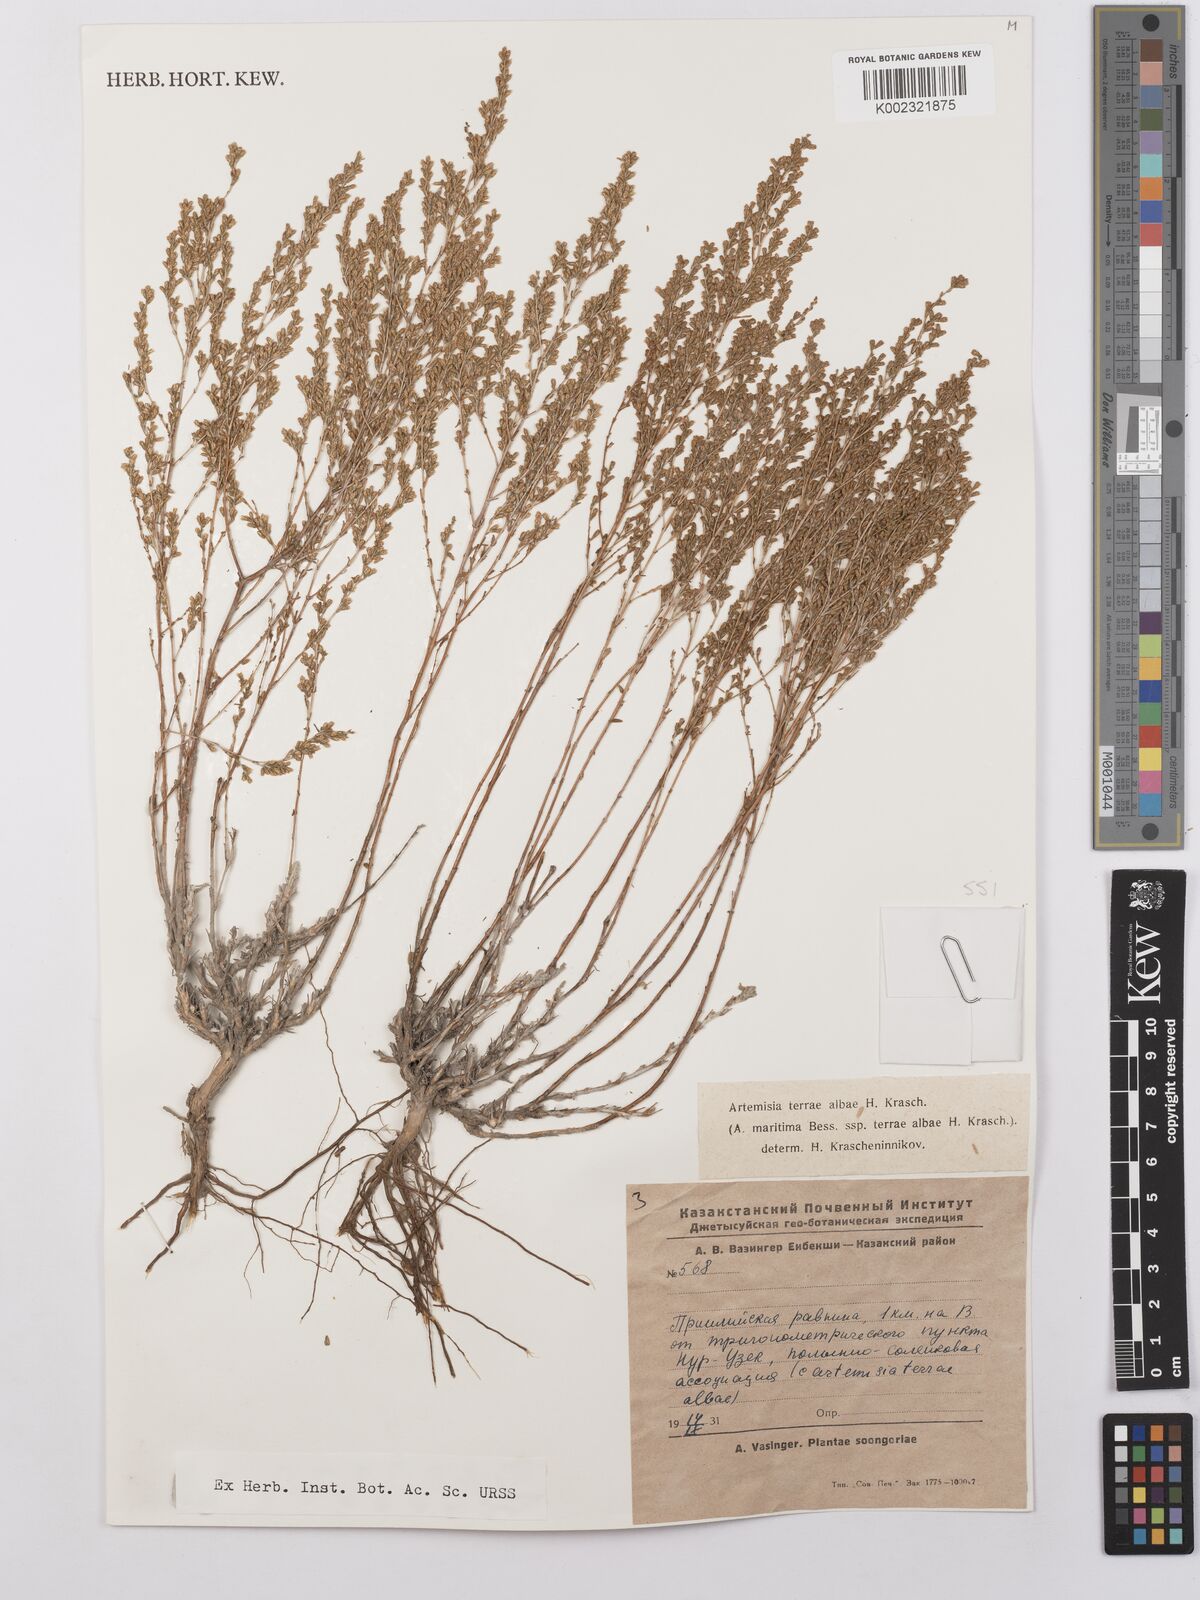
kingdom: Plantae
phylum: Tracheophyta
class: Magnoliopsida
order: Asterales
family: Asteraceae
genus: Artemisia
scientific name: Artemisia terrae-albae
